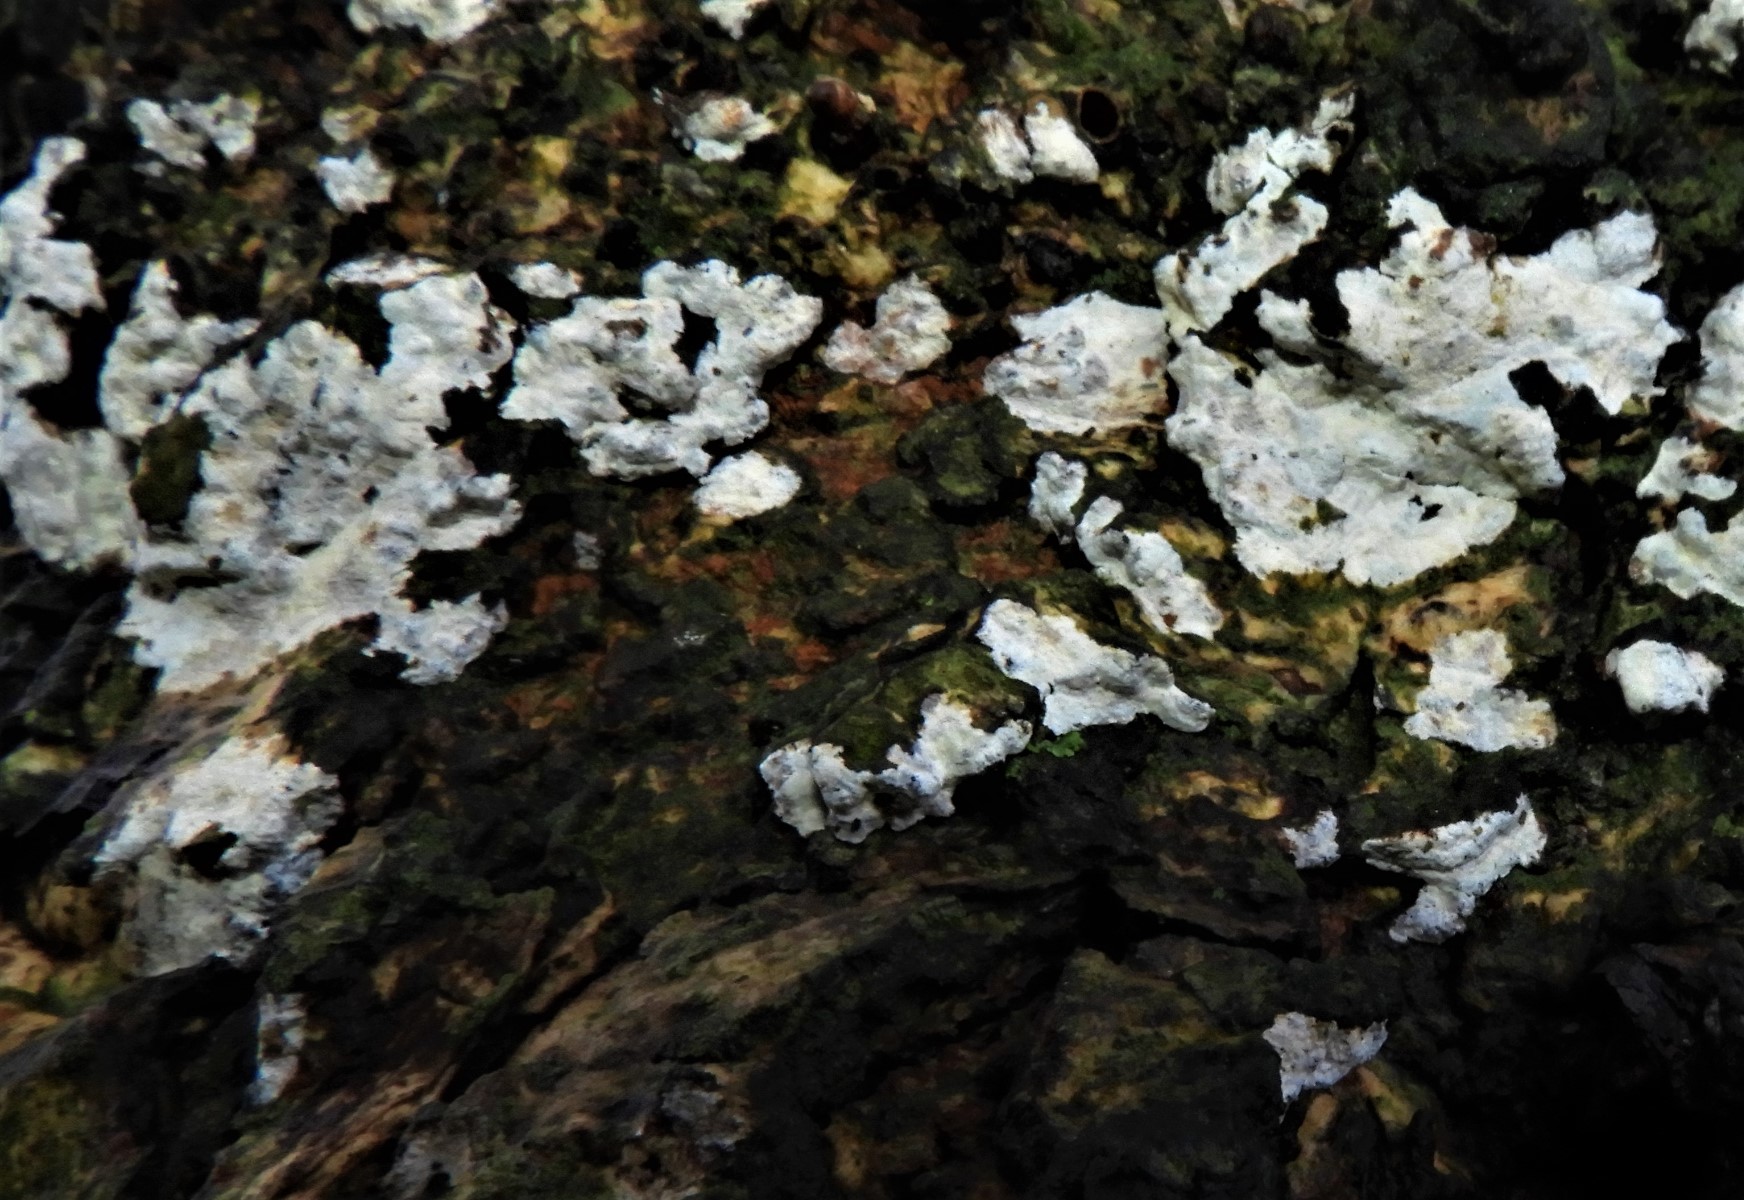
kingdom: Fungi
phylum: Basidiomycota
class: Agaricomycetes
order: Agaricales
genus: Dendrothele
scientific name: Dendrothele acerina
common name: navr-kalkplet
